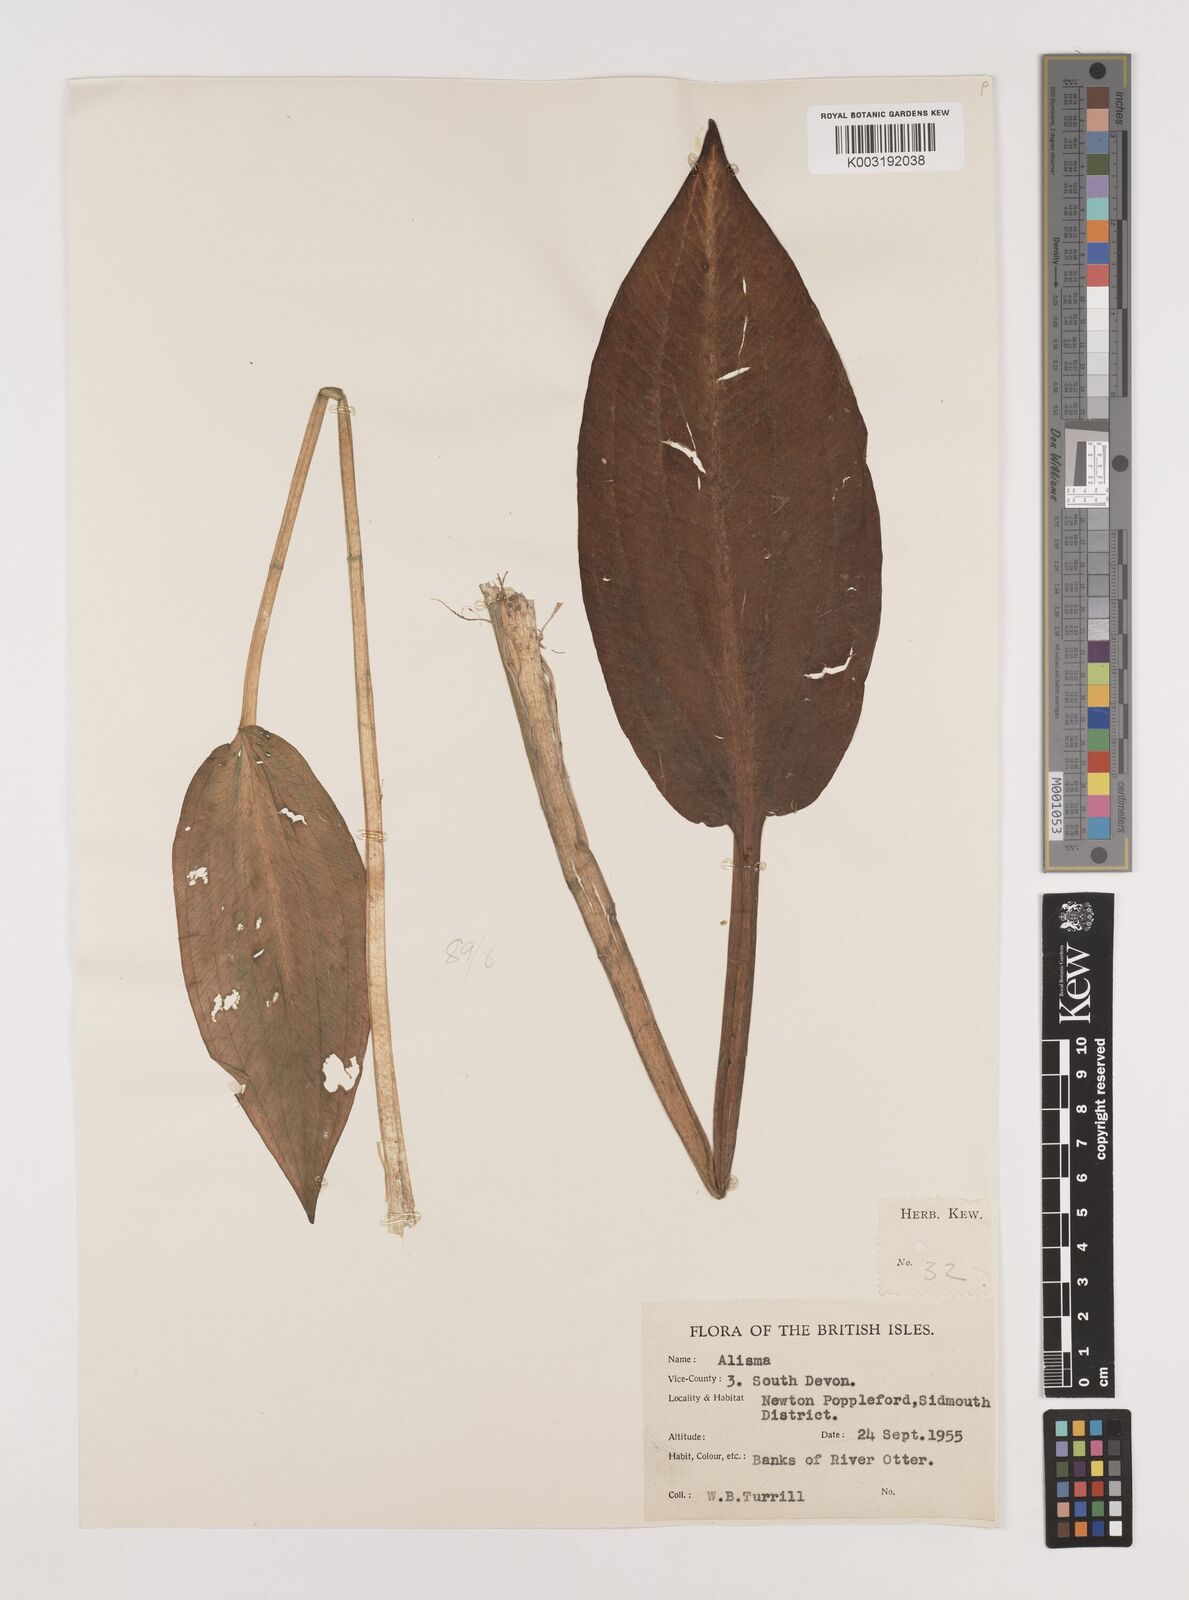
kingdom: Plantae
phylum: Tracheophyta
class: Liliopsida
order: Alismatales
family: Alismataceae
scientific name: Alismataceae
